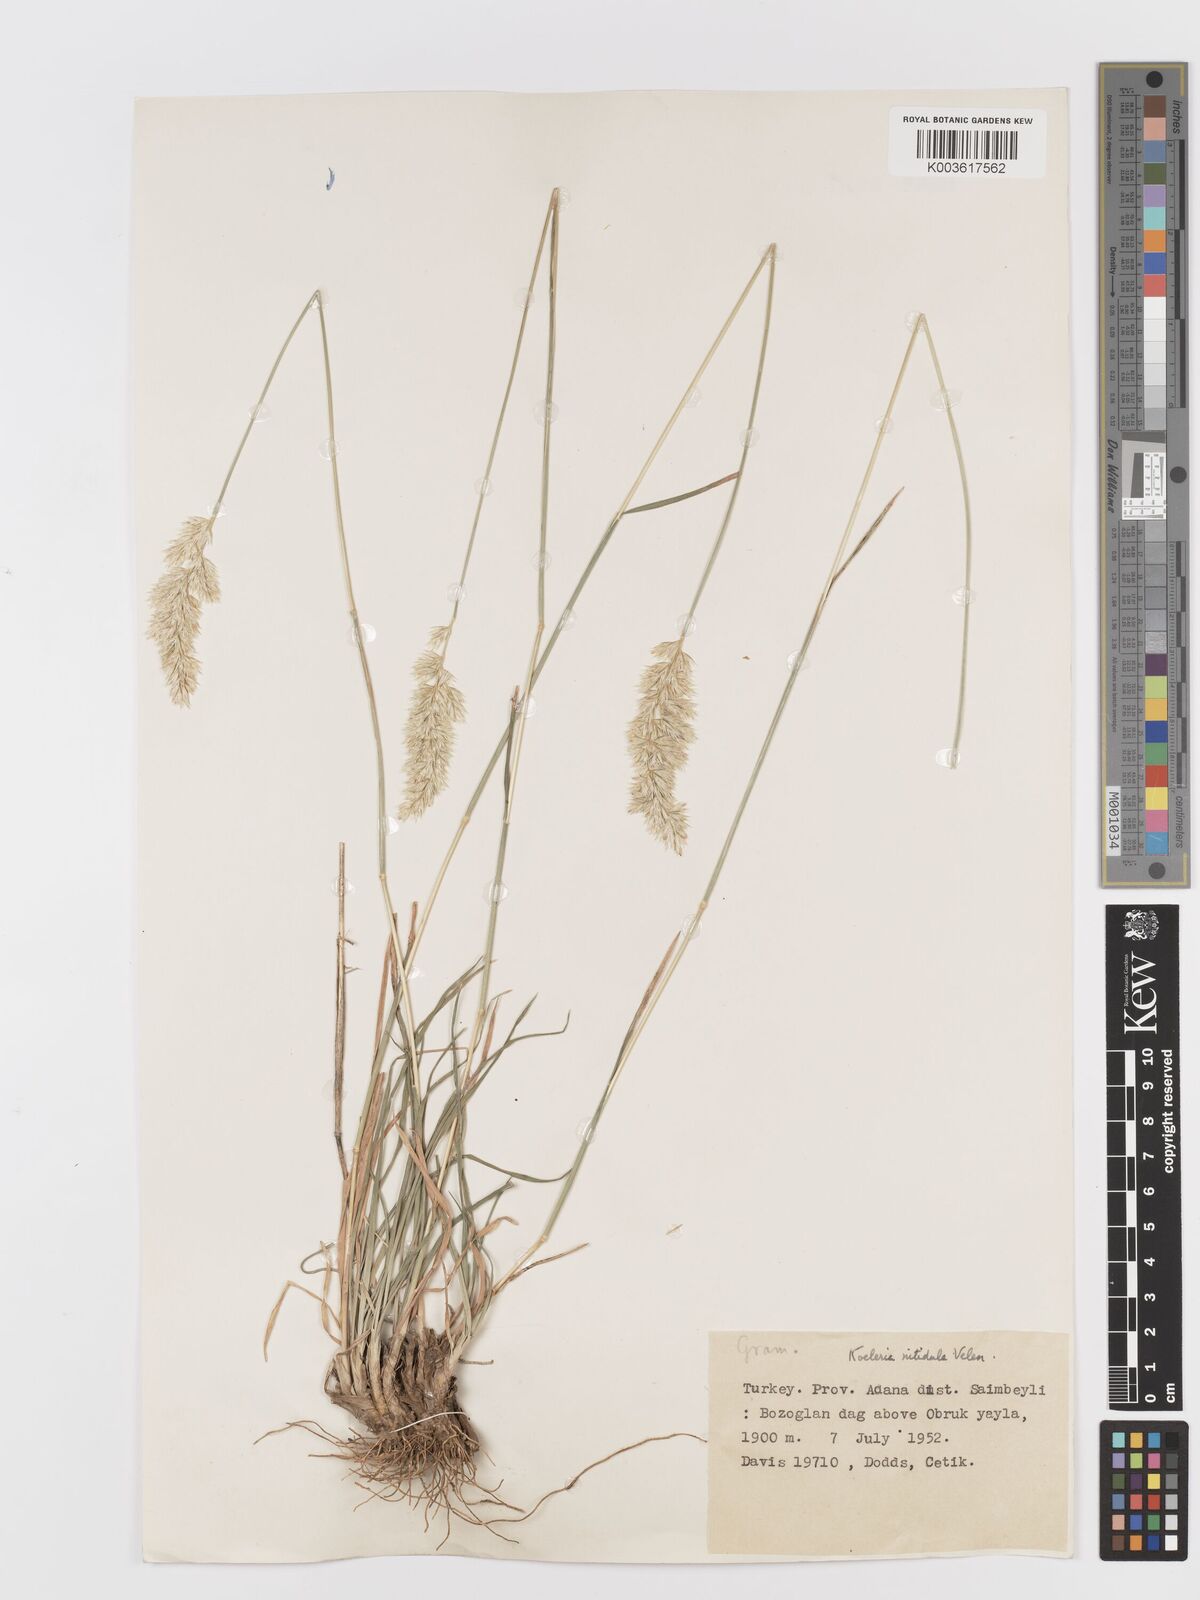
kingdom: Plantae
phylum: Tracheophyta
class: Liliopsida
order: Poales
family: Poaceae
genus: Koeleria
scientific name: Koeleria nitidula
